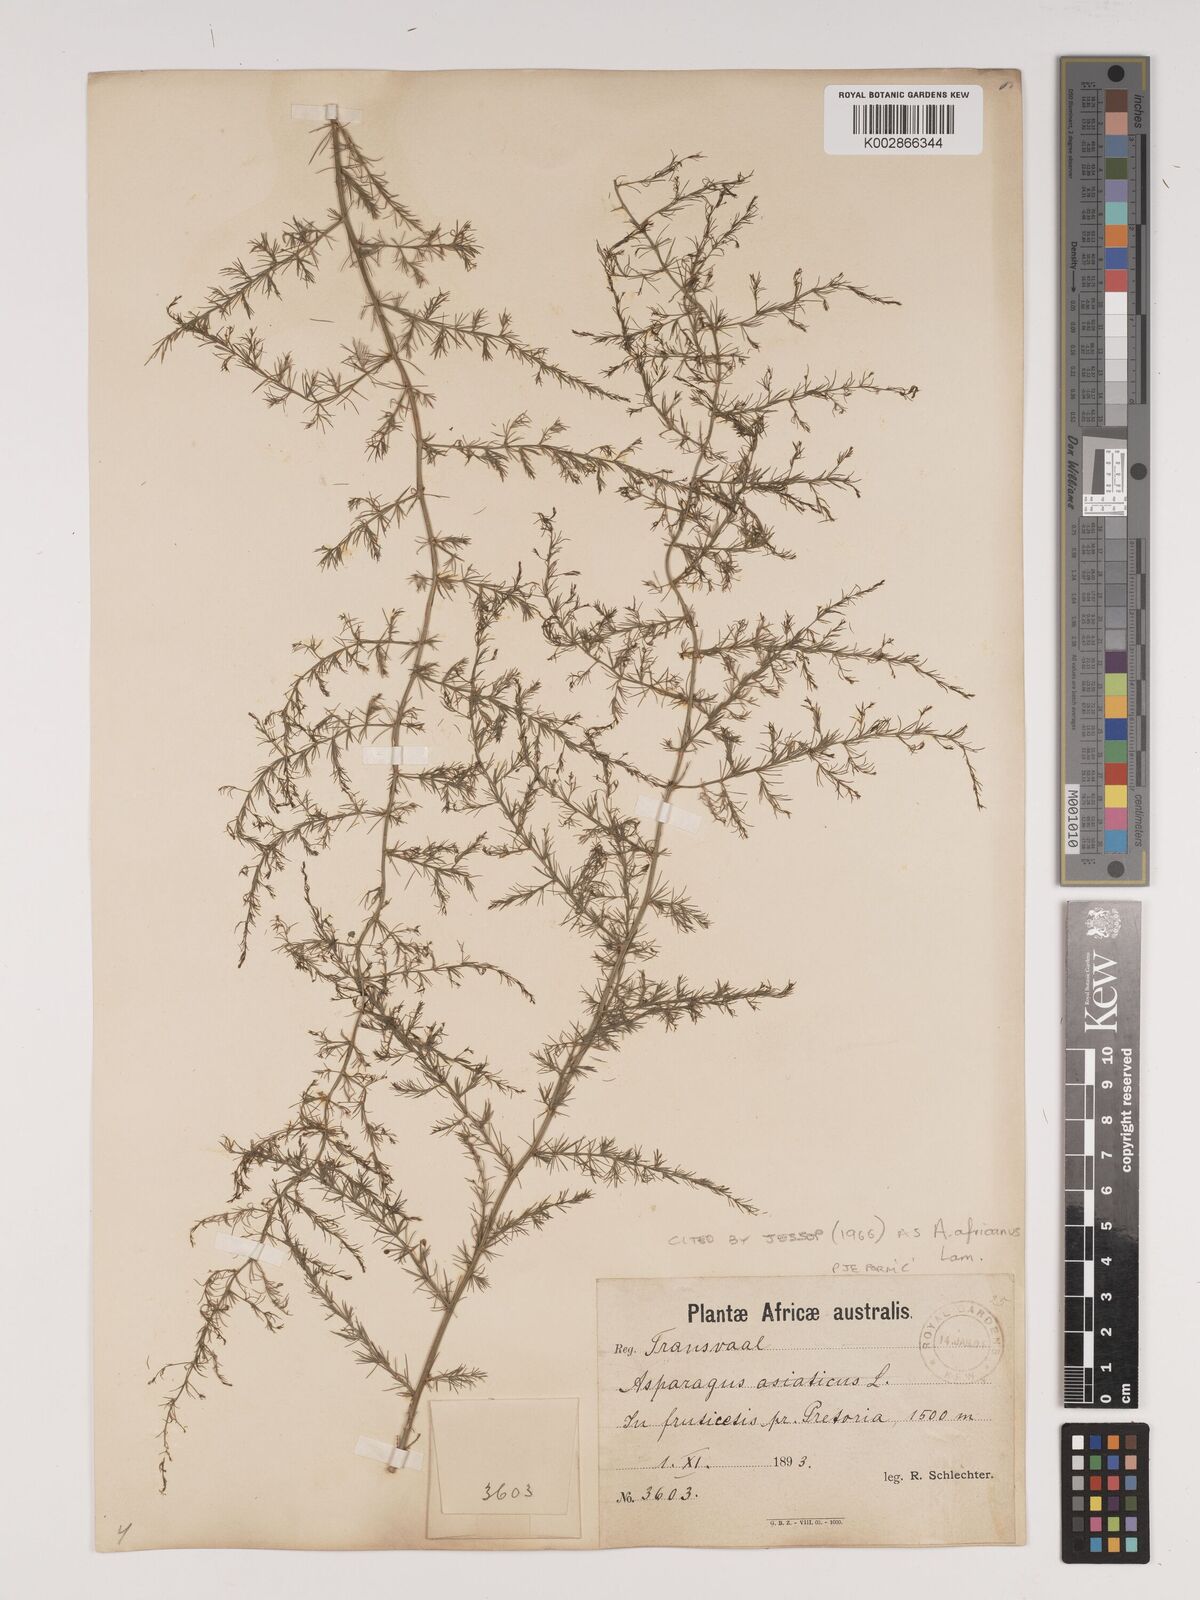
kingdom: Plantae
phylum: Tracheophyta
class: Liliopsida
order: Asparagales
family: Asparagaceae
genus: Asparagus
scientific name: Asparagus africanus
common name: Asparagus-fern
